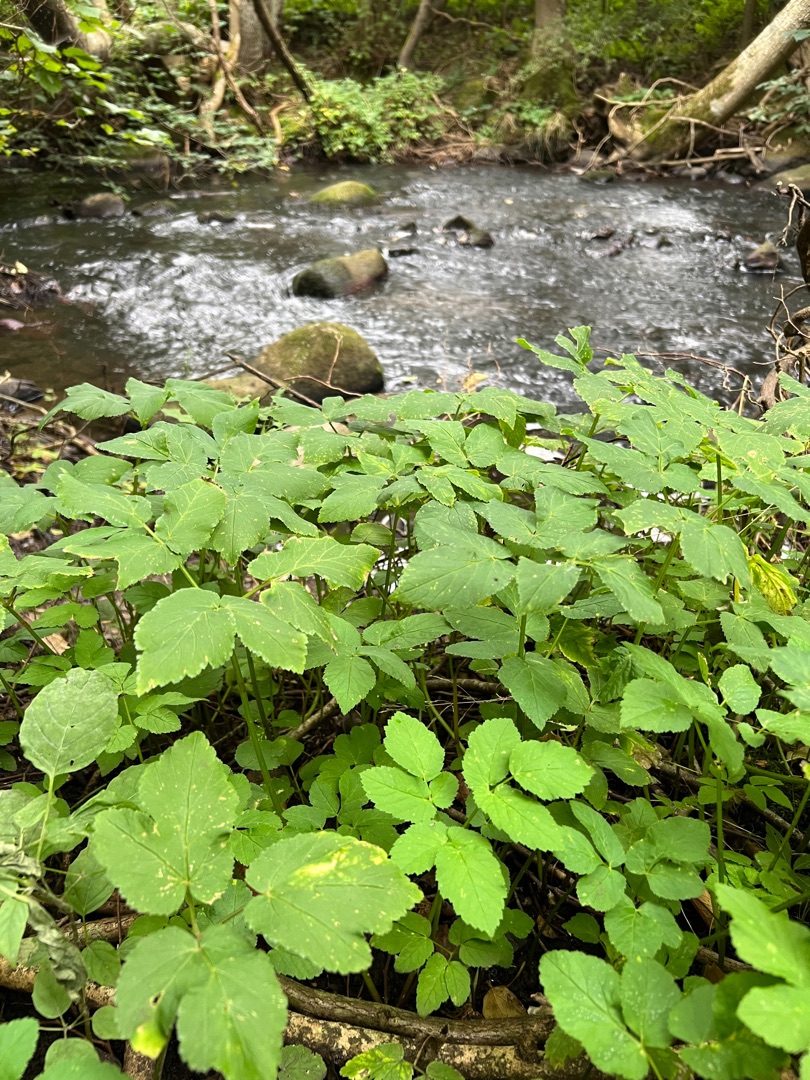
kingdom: Plantae
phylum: Tracheophyta
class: Magnoliopsida
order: Apiales
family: Apiaceae
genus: Aegopodium
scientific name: Aegopodium podagraria
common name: Skvalderkål
